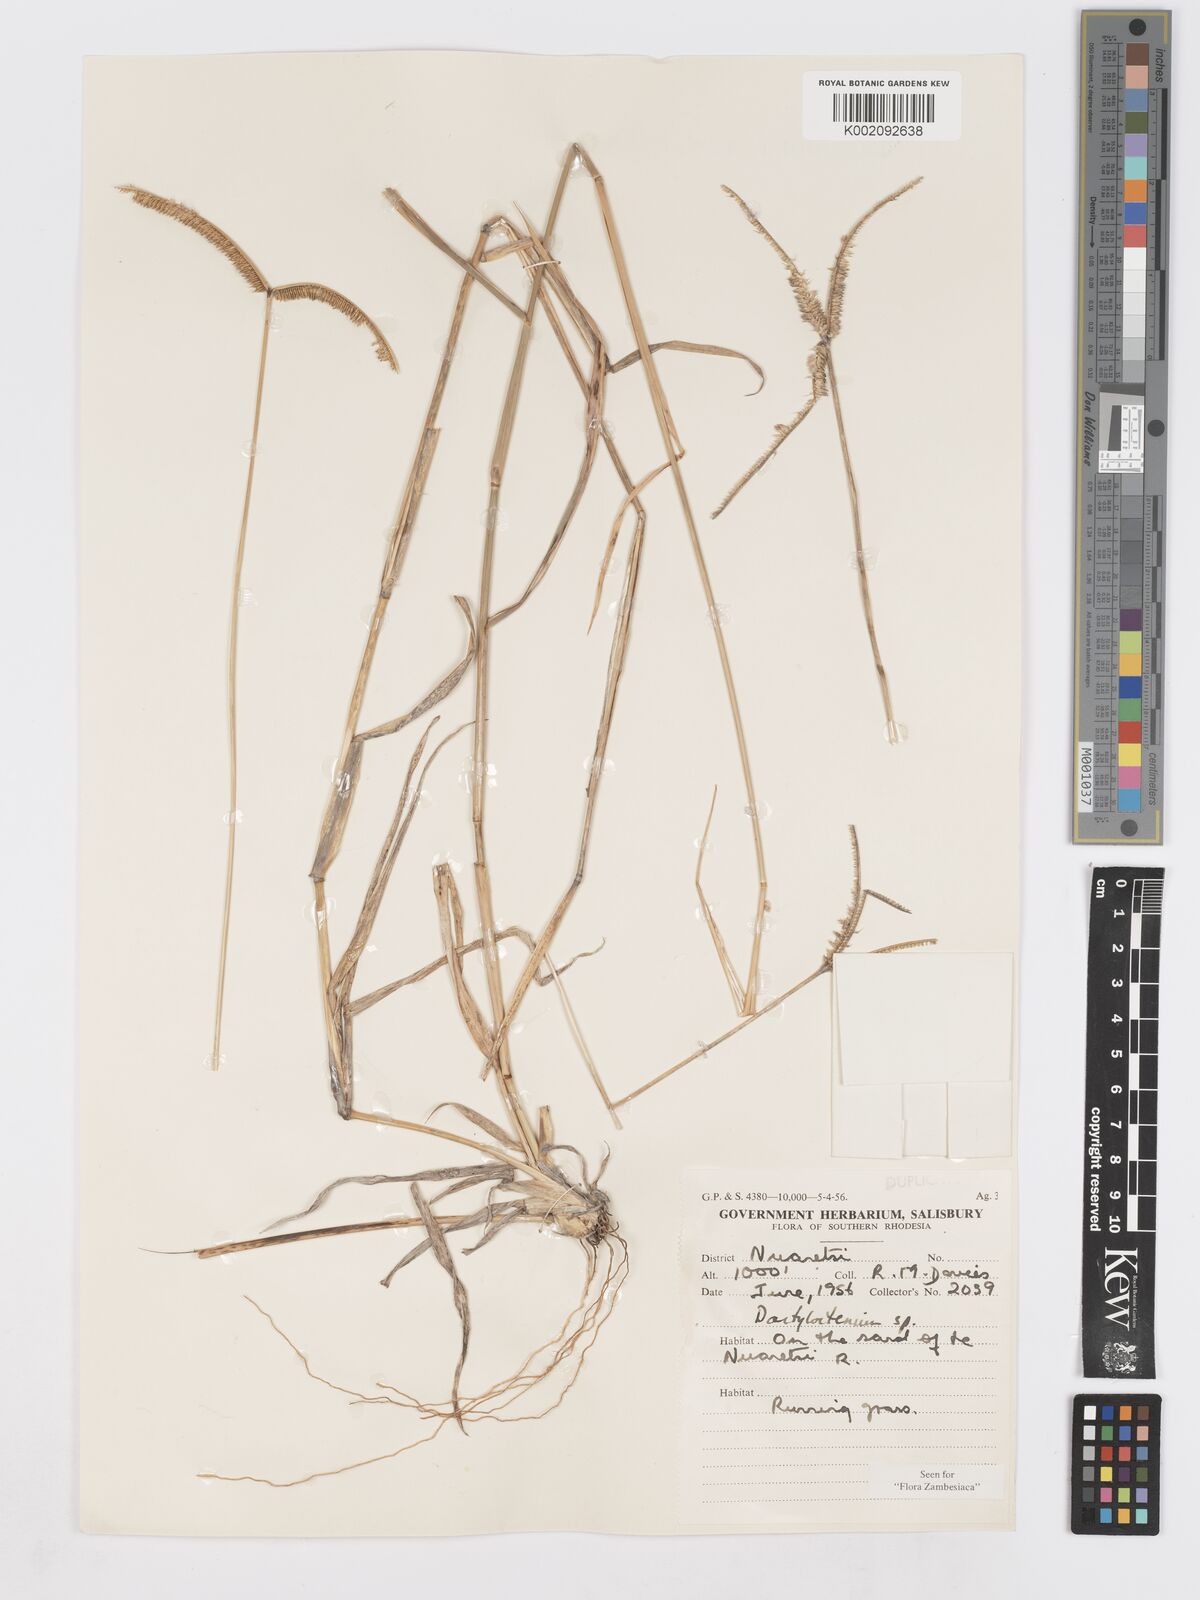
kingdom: Plantae
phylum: Tracheophyta
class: Liliopsida
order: Poales
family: Poaceae
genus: Dactyloctenium
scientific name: Dactyloctenium geminatum
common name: Crowsfoot grass
